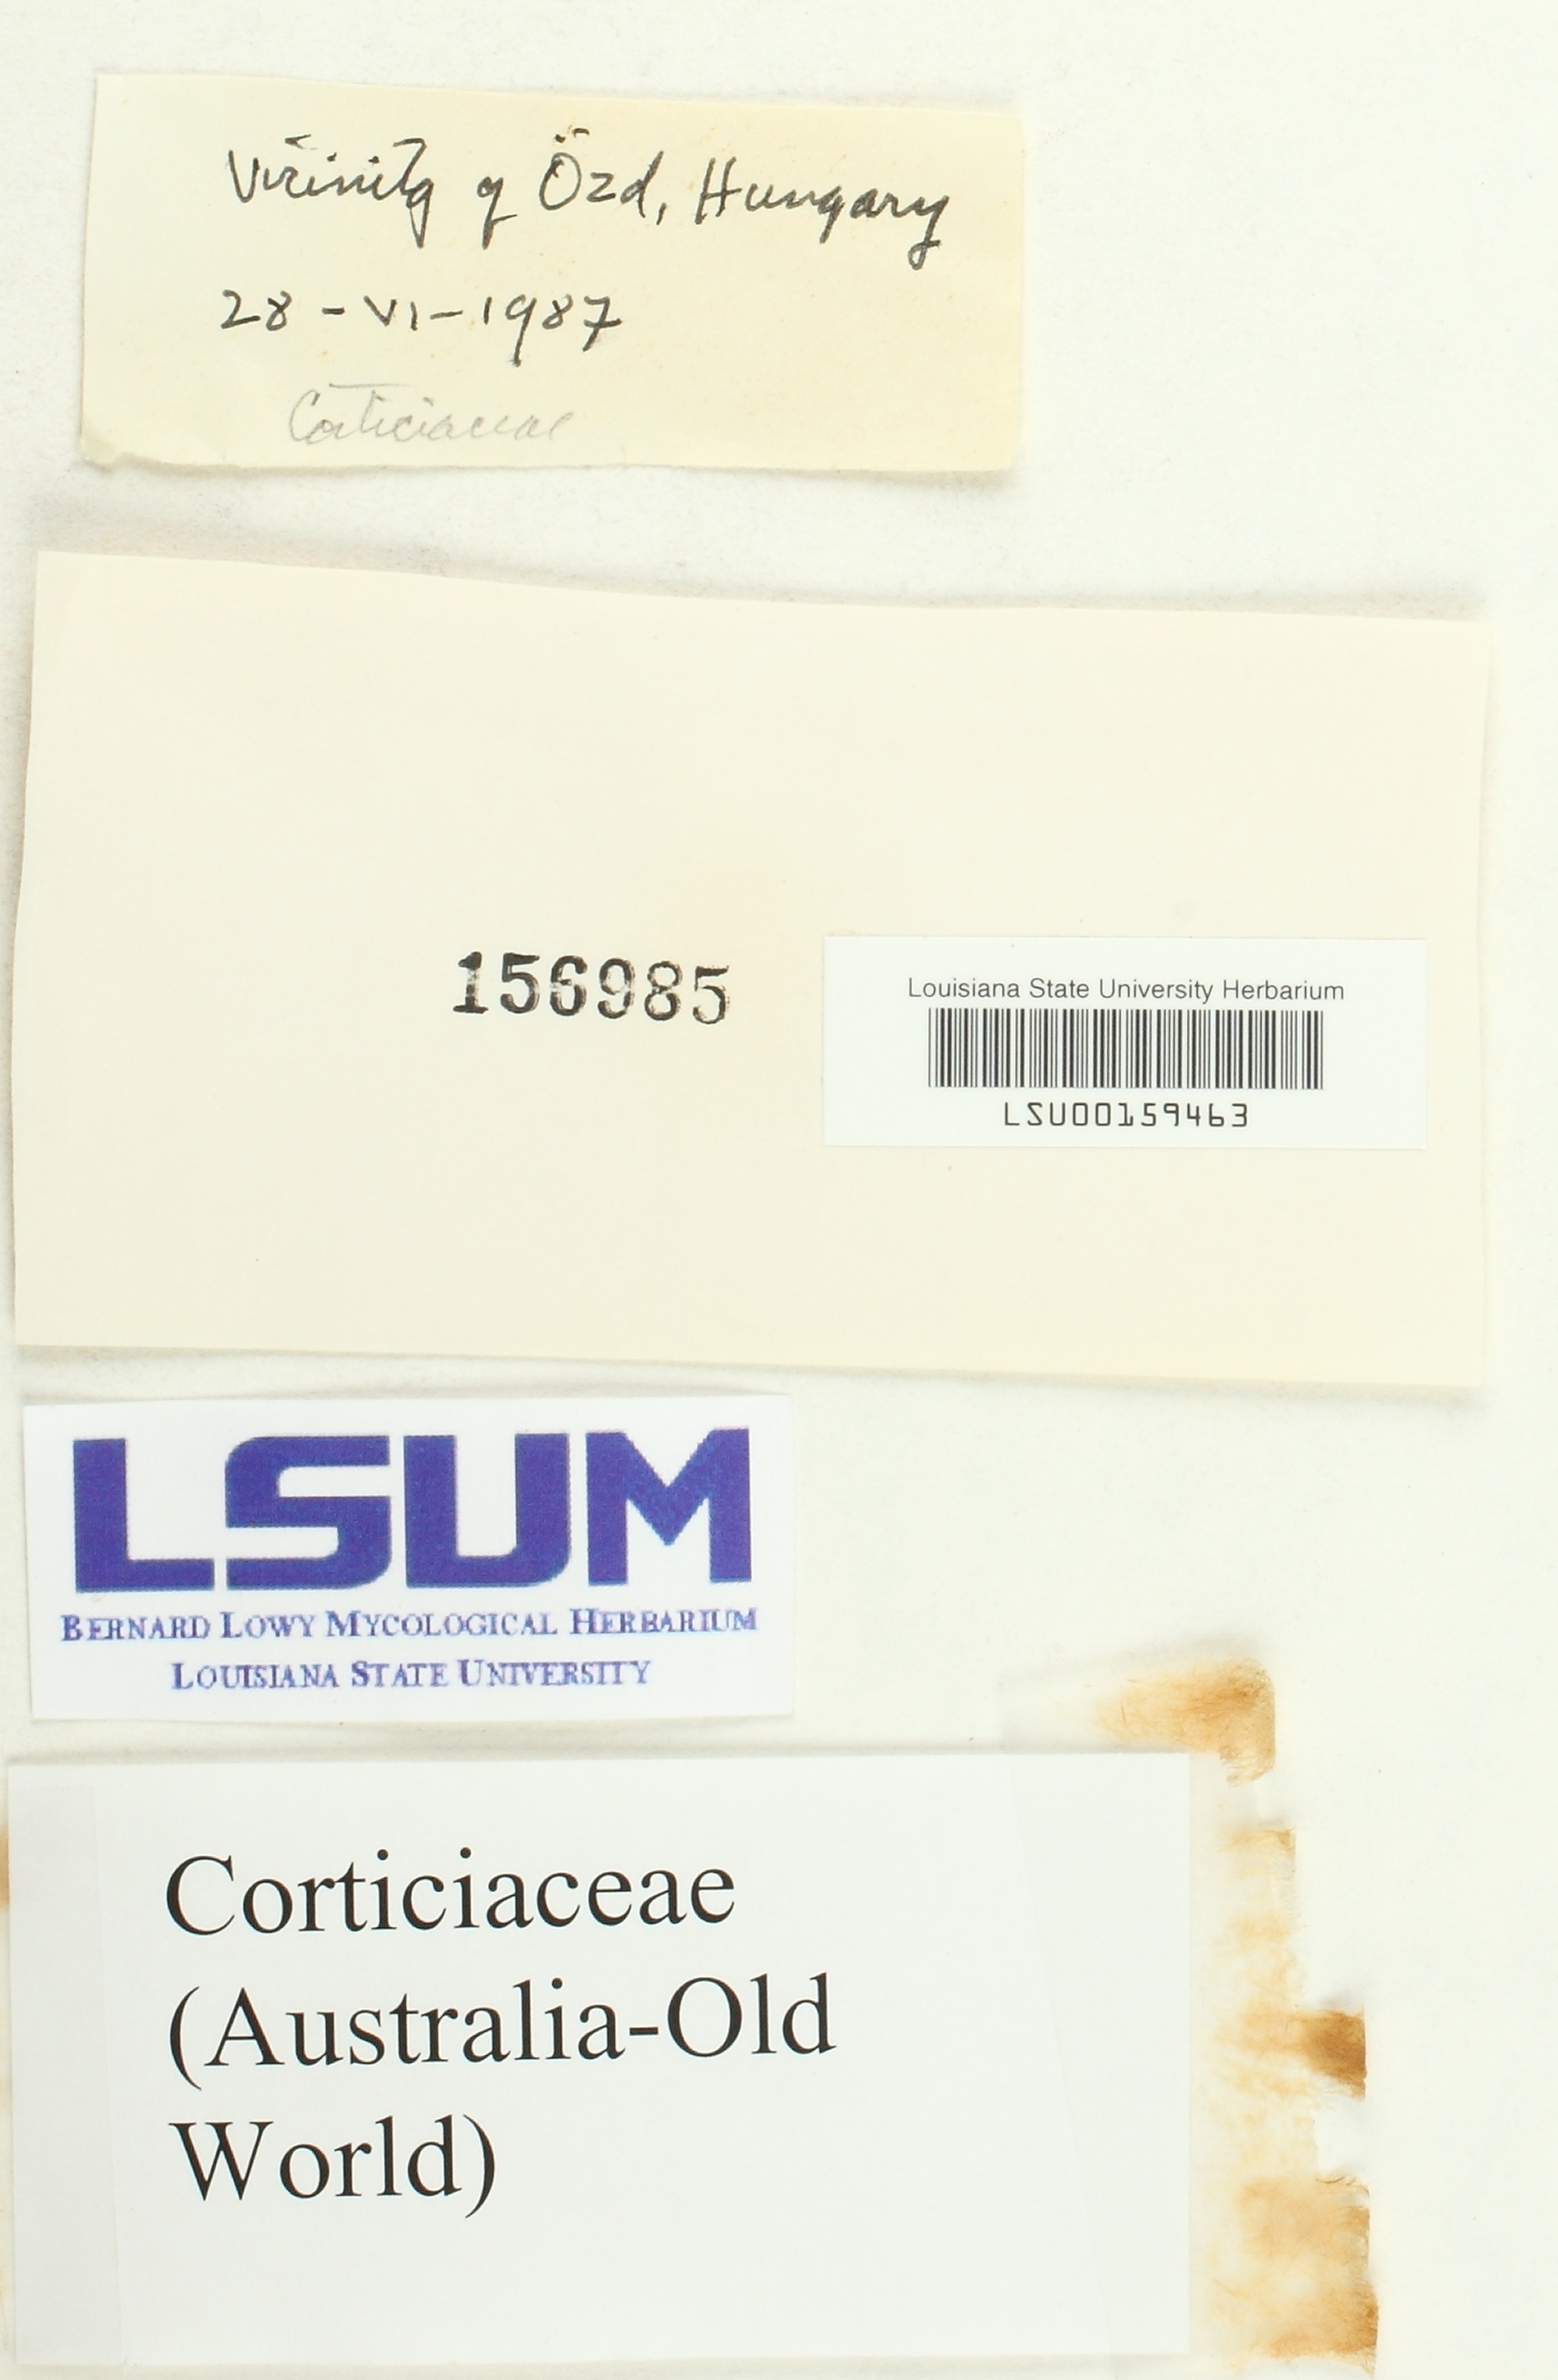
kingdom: Fungi
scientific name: Fungi
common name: Fungi
